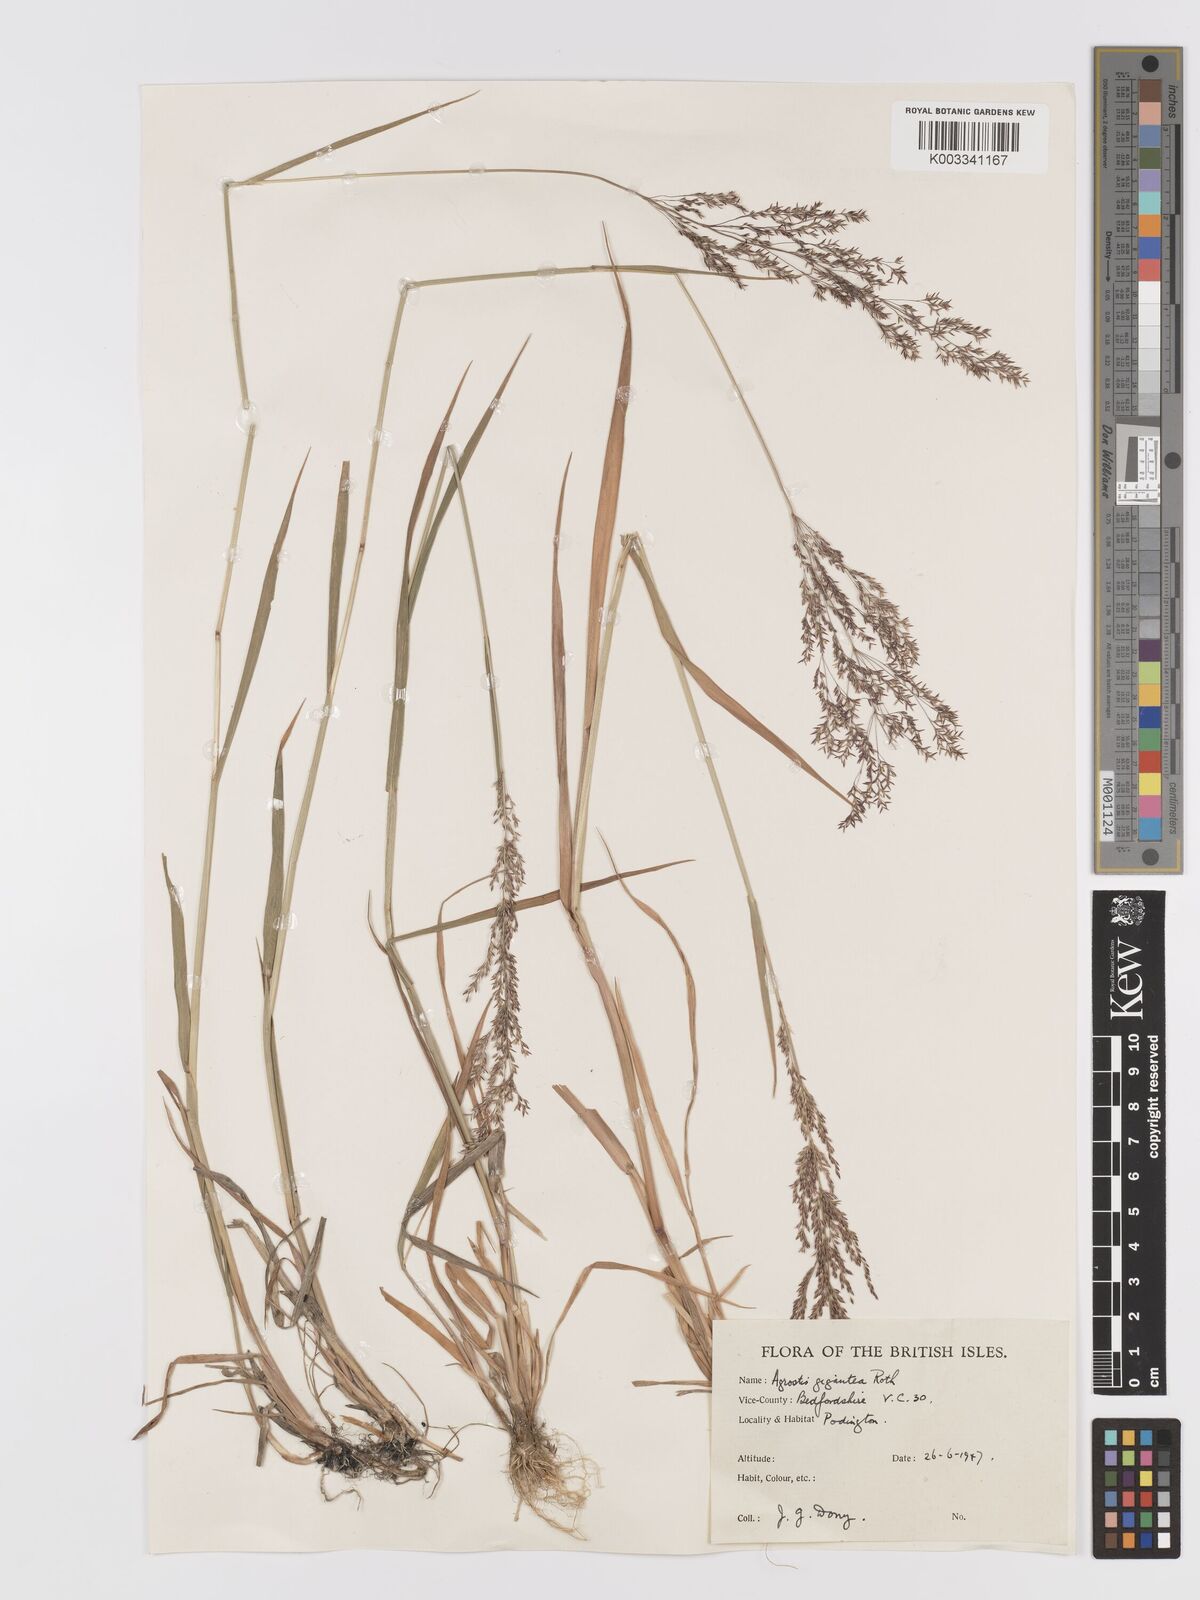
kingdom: Plantae
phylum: Tracheophyta
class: Liliopsida
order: Poales
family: Poaceae
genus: Agrostis
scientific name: Agrostis gigantea
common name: Black bent
